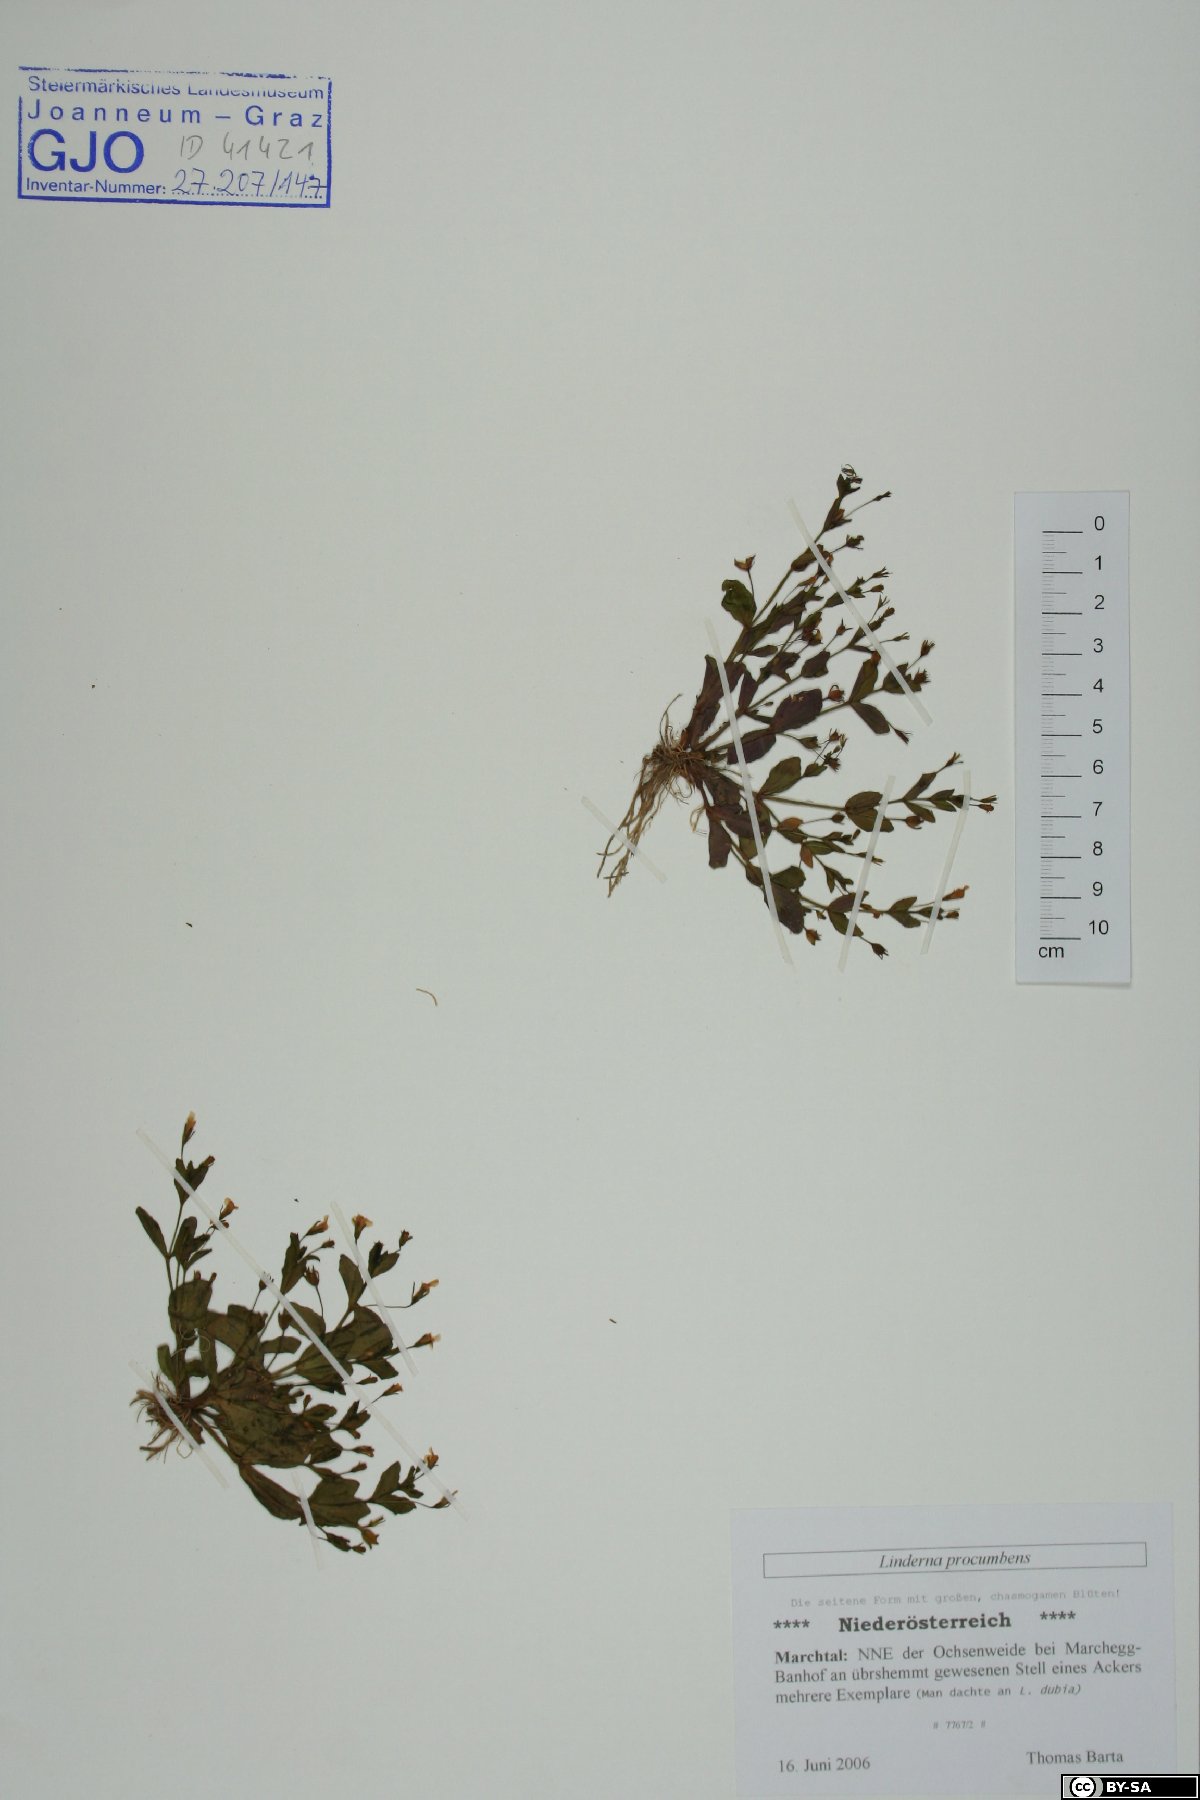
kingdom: Plantae
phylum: Tracheophyta
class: Magnoliopsida
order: Lamiales
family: Linderniaceae
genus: Lindernia
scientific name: Lindernia procumbens
